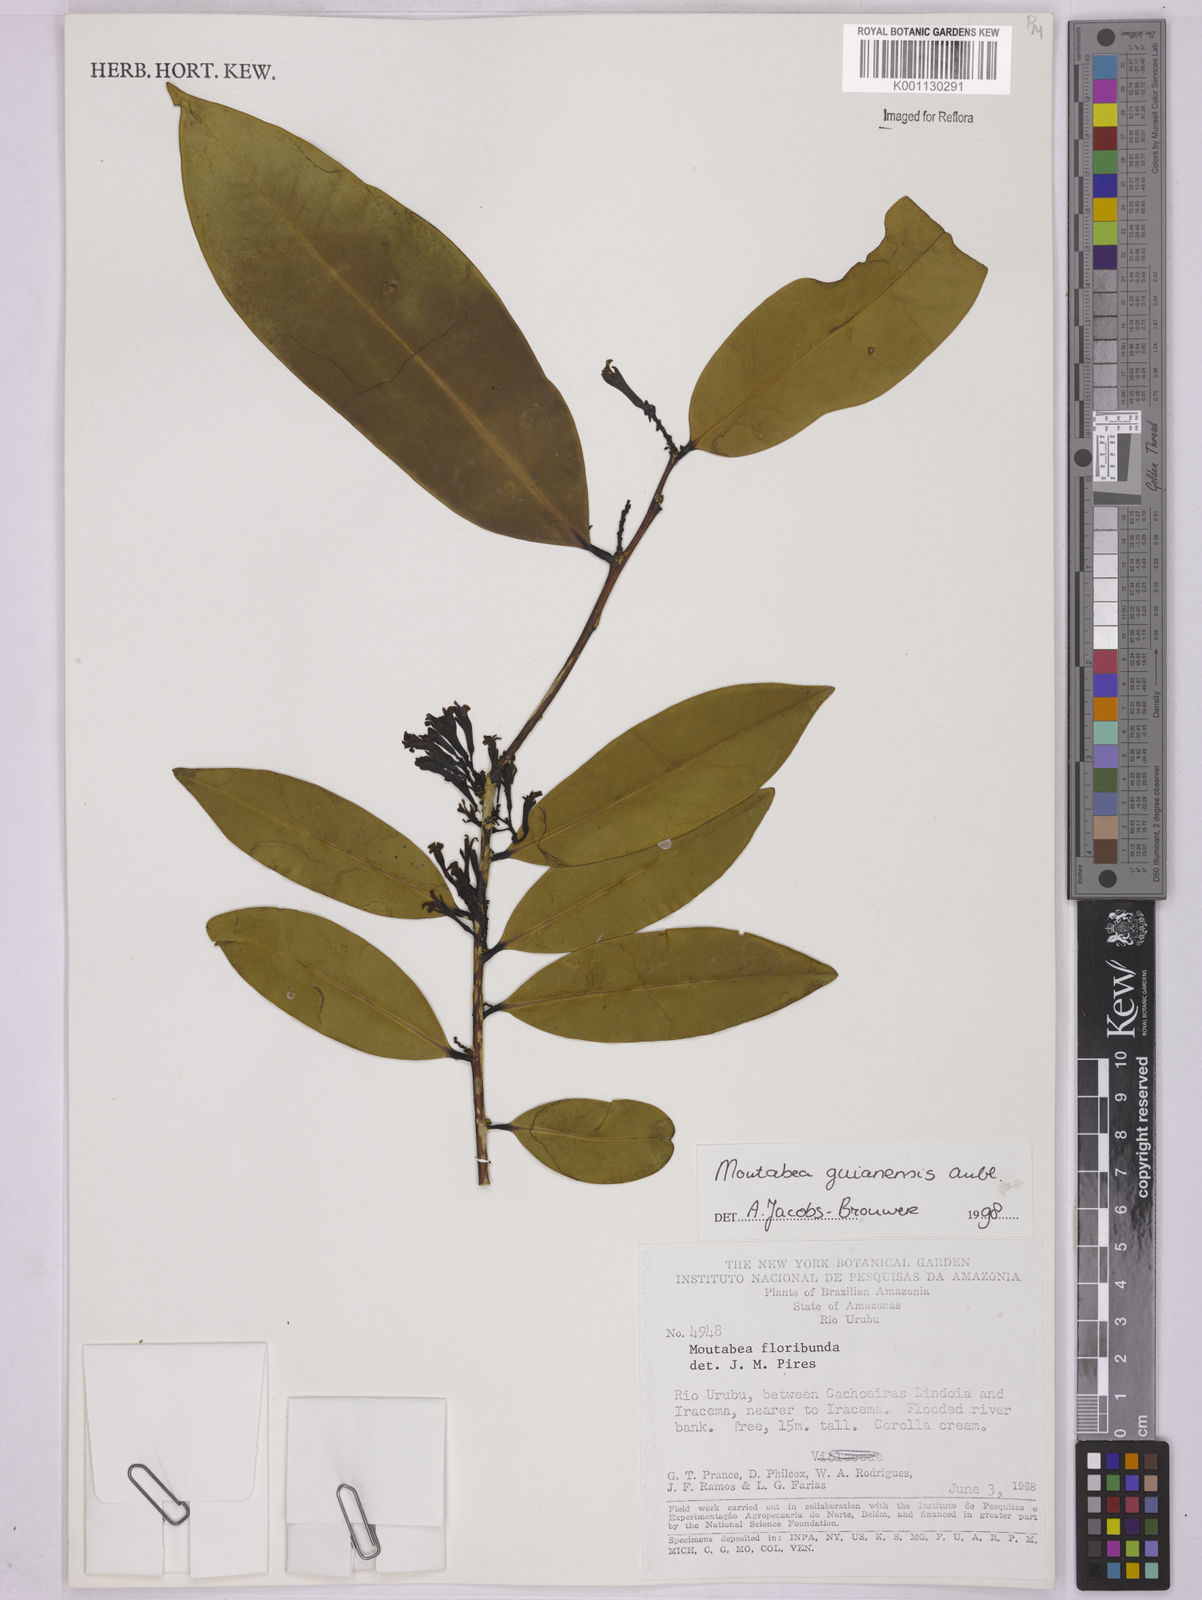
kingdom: Plantae
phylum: Tracheophyta
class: Magnoliopsida
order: Fabales
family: Polygalaceae
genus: Moutabea
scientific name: Moutabea guianensis
